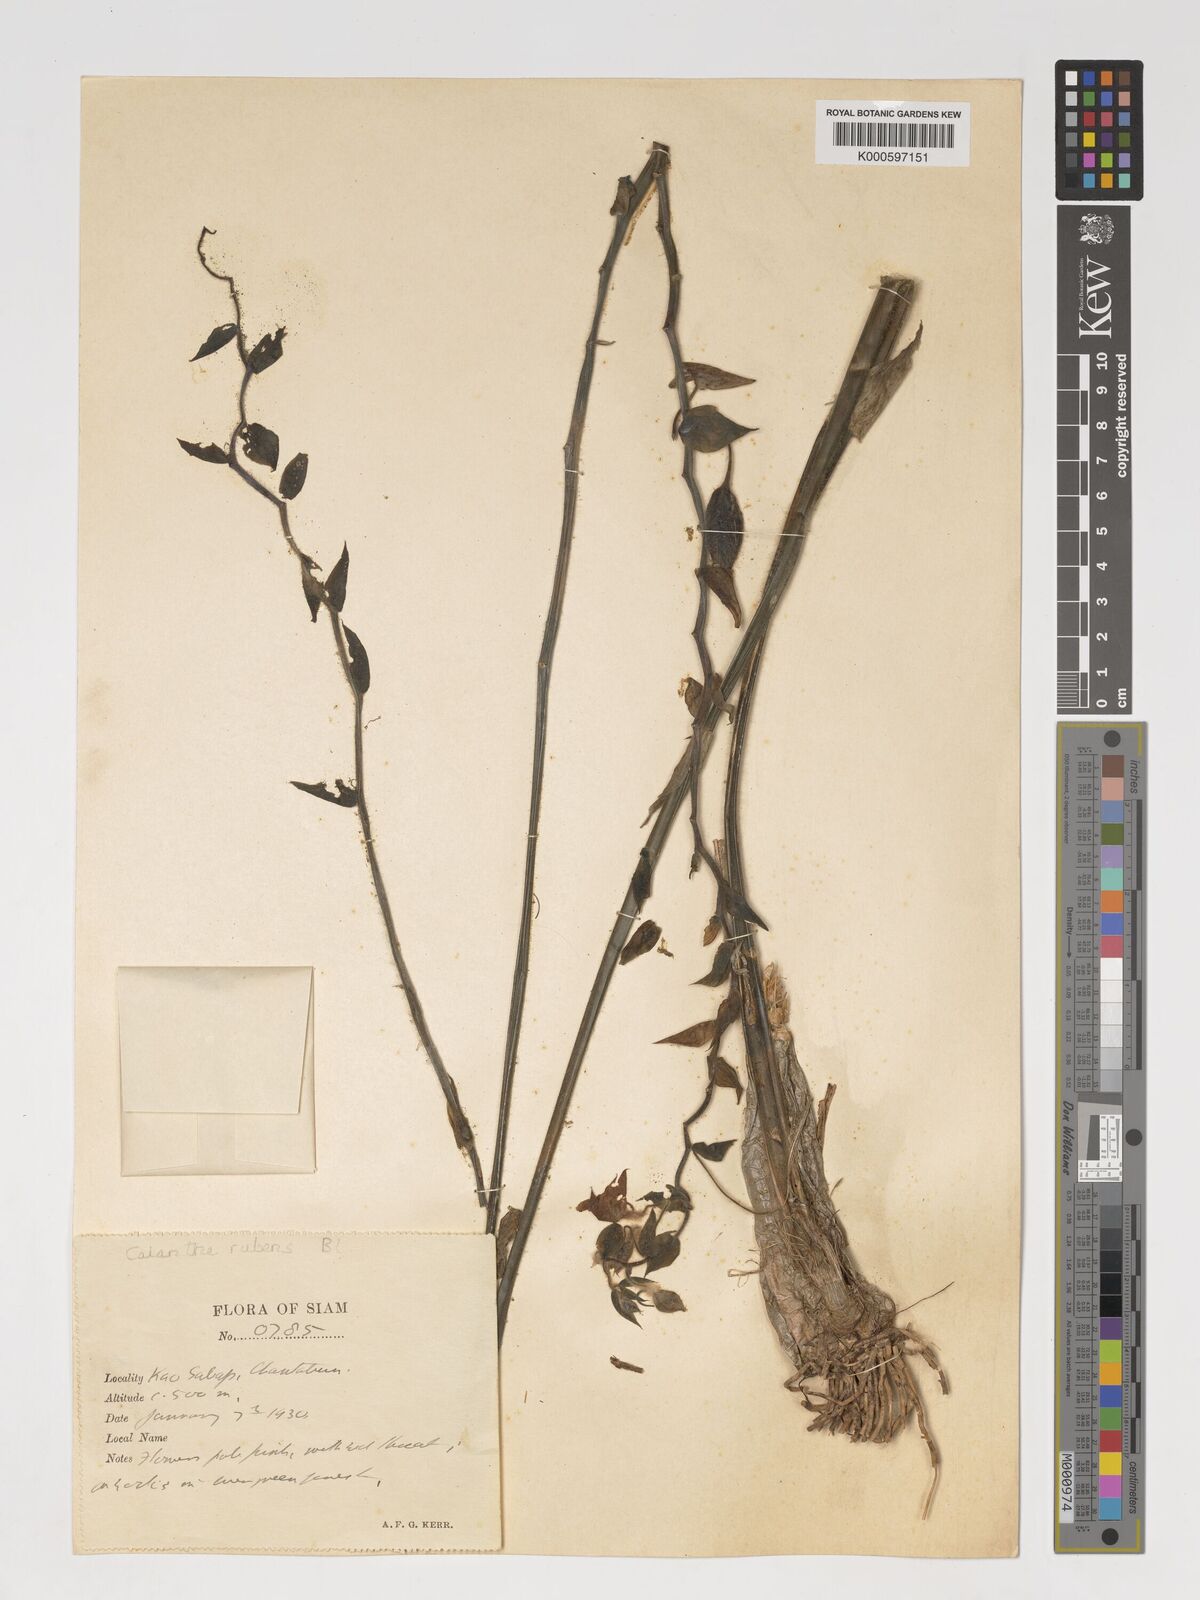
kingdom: Plantae
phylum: Tracheophyta
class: Liliopsida
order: Asparagales
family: Orchidaceae
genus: Calanthe
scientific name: Calanthe rubens
